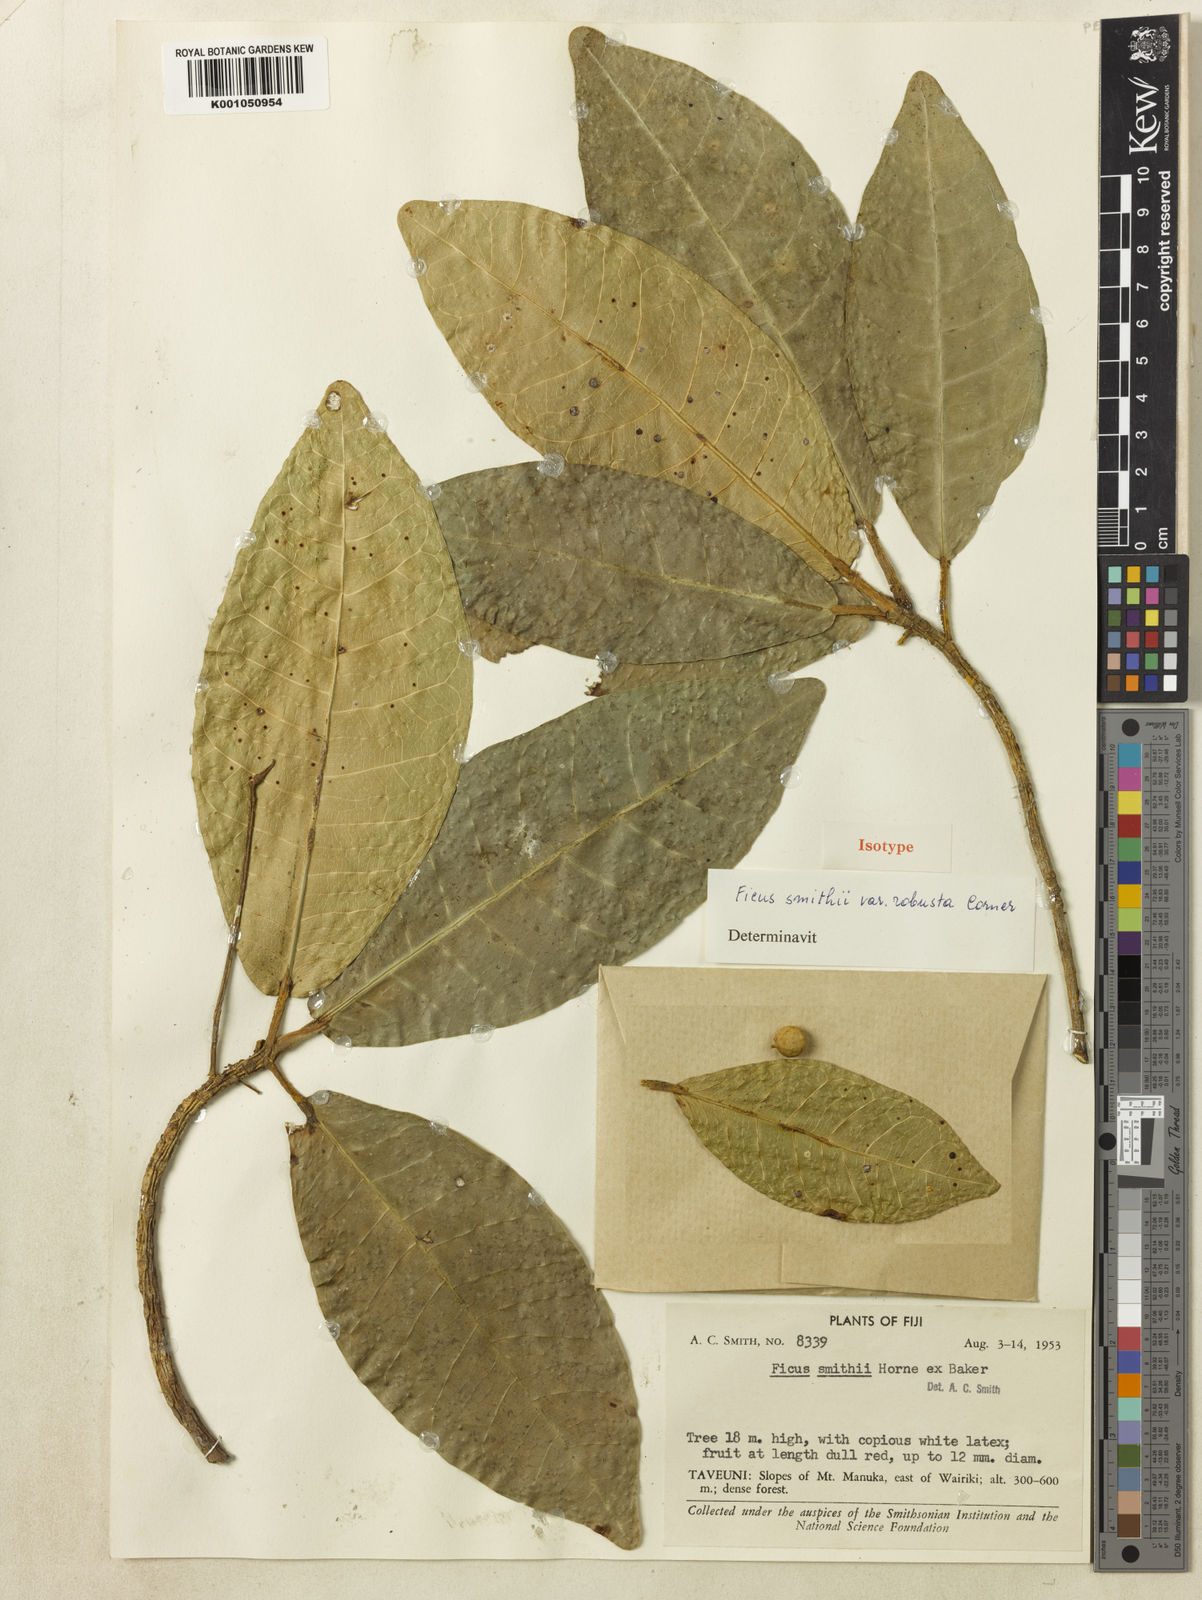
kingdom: Plantae
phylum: Tracheophyta
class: Magnoliopsida
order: Rosales
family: Moraceae
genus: Ficus
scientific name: Ficus smithii
